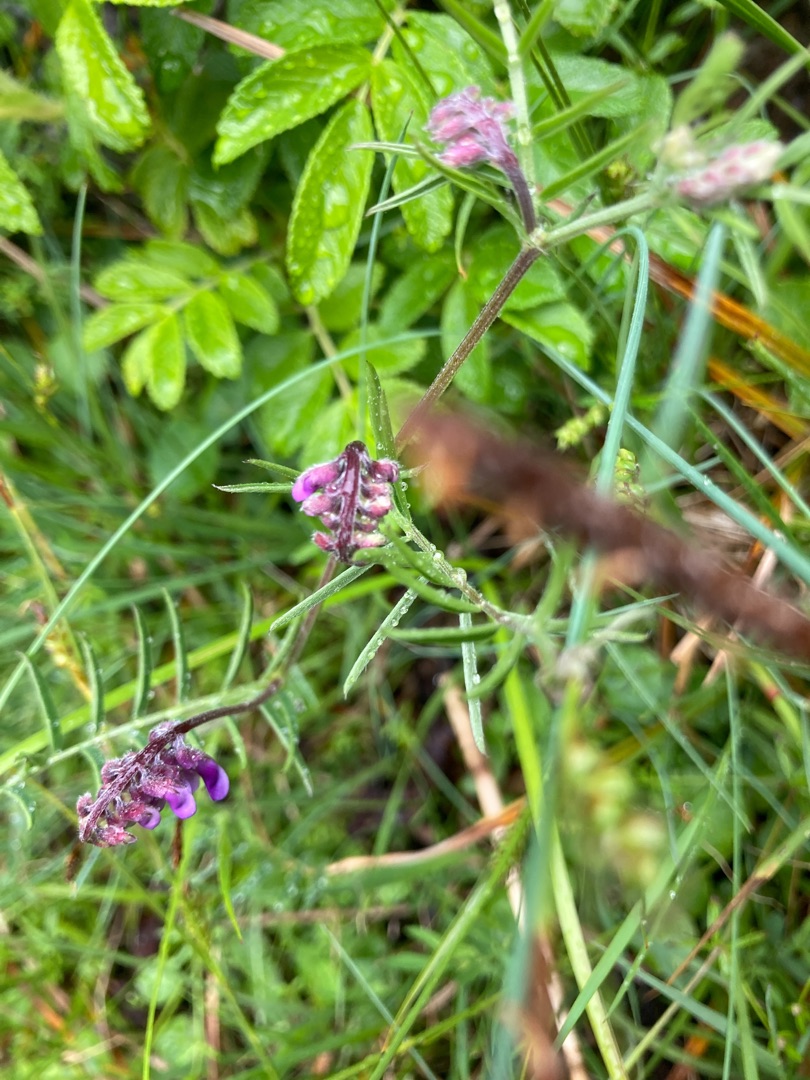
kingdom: Plantae
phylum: Tracheophyta
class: Magnoliopsida
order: Fabales
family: Fabaceae
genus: Vicia
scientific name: Vicia cracca
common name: Muse-vikke
